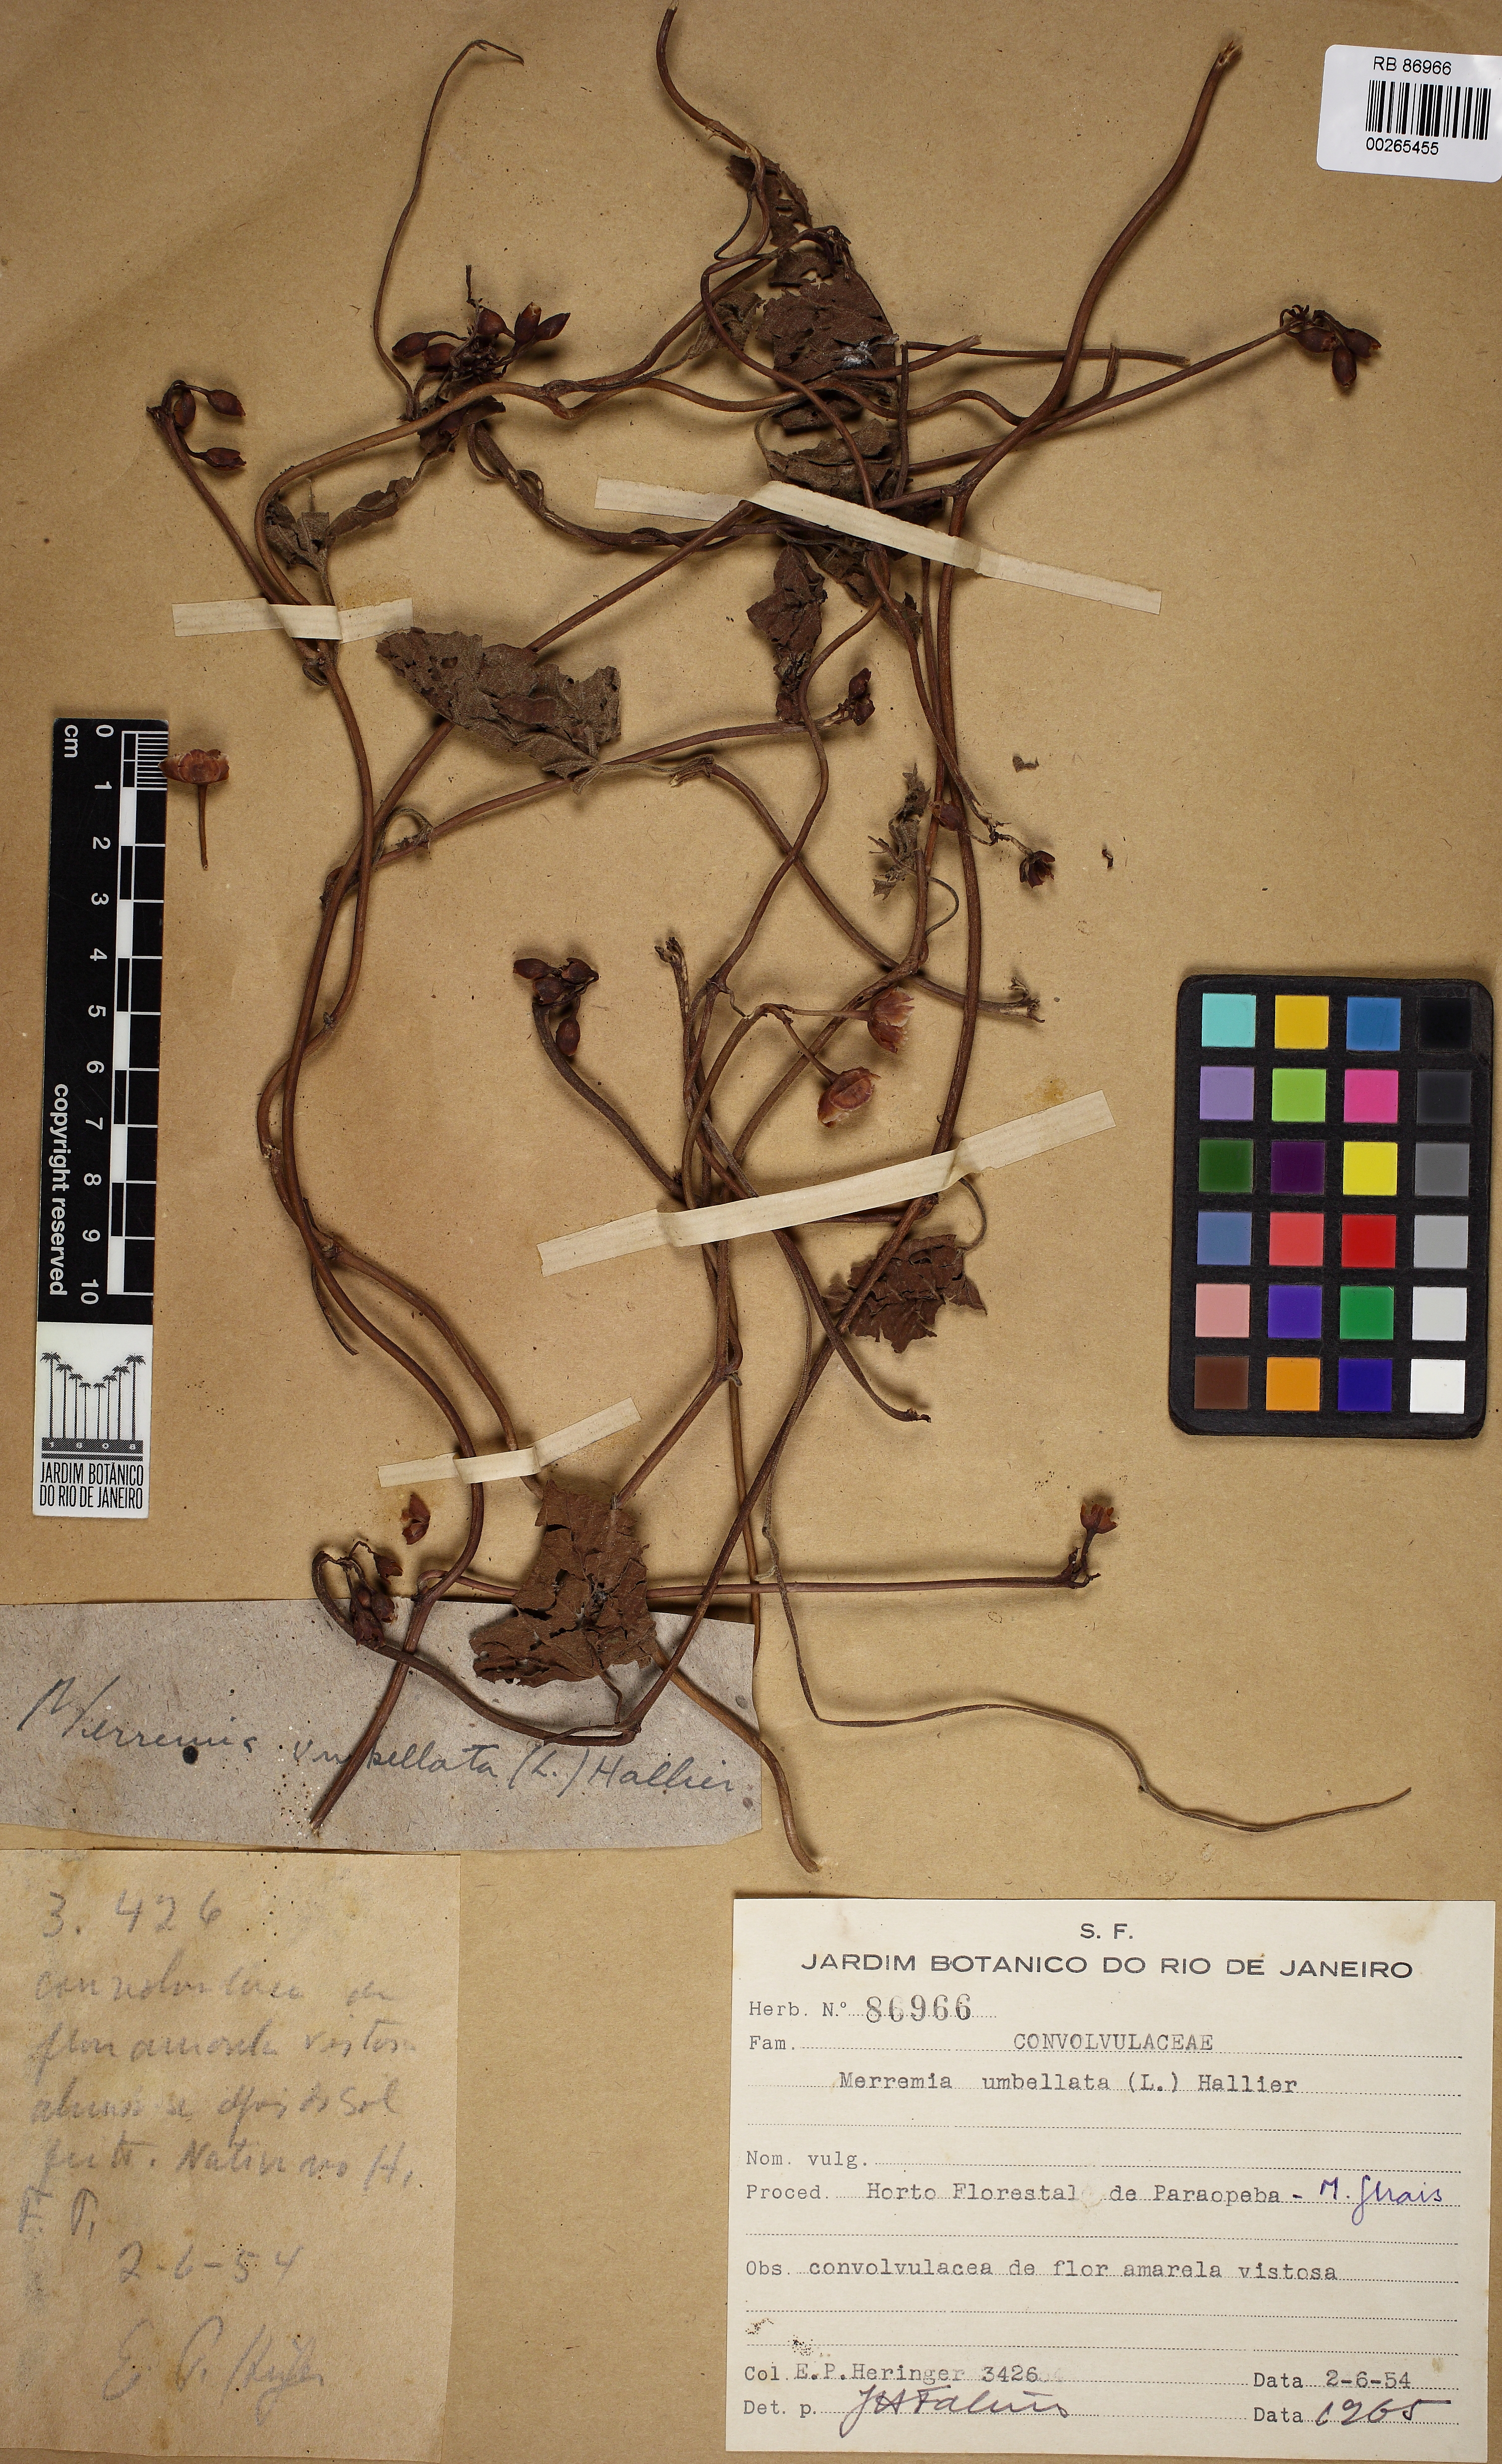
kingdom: Plantae
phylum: Tracheophyta
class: Magnoliopsida
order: Solanales
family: Convolvulaceae
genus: Camonea
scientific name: Camonea umbellata
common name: Hogvine
